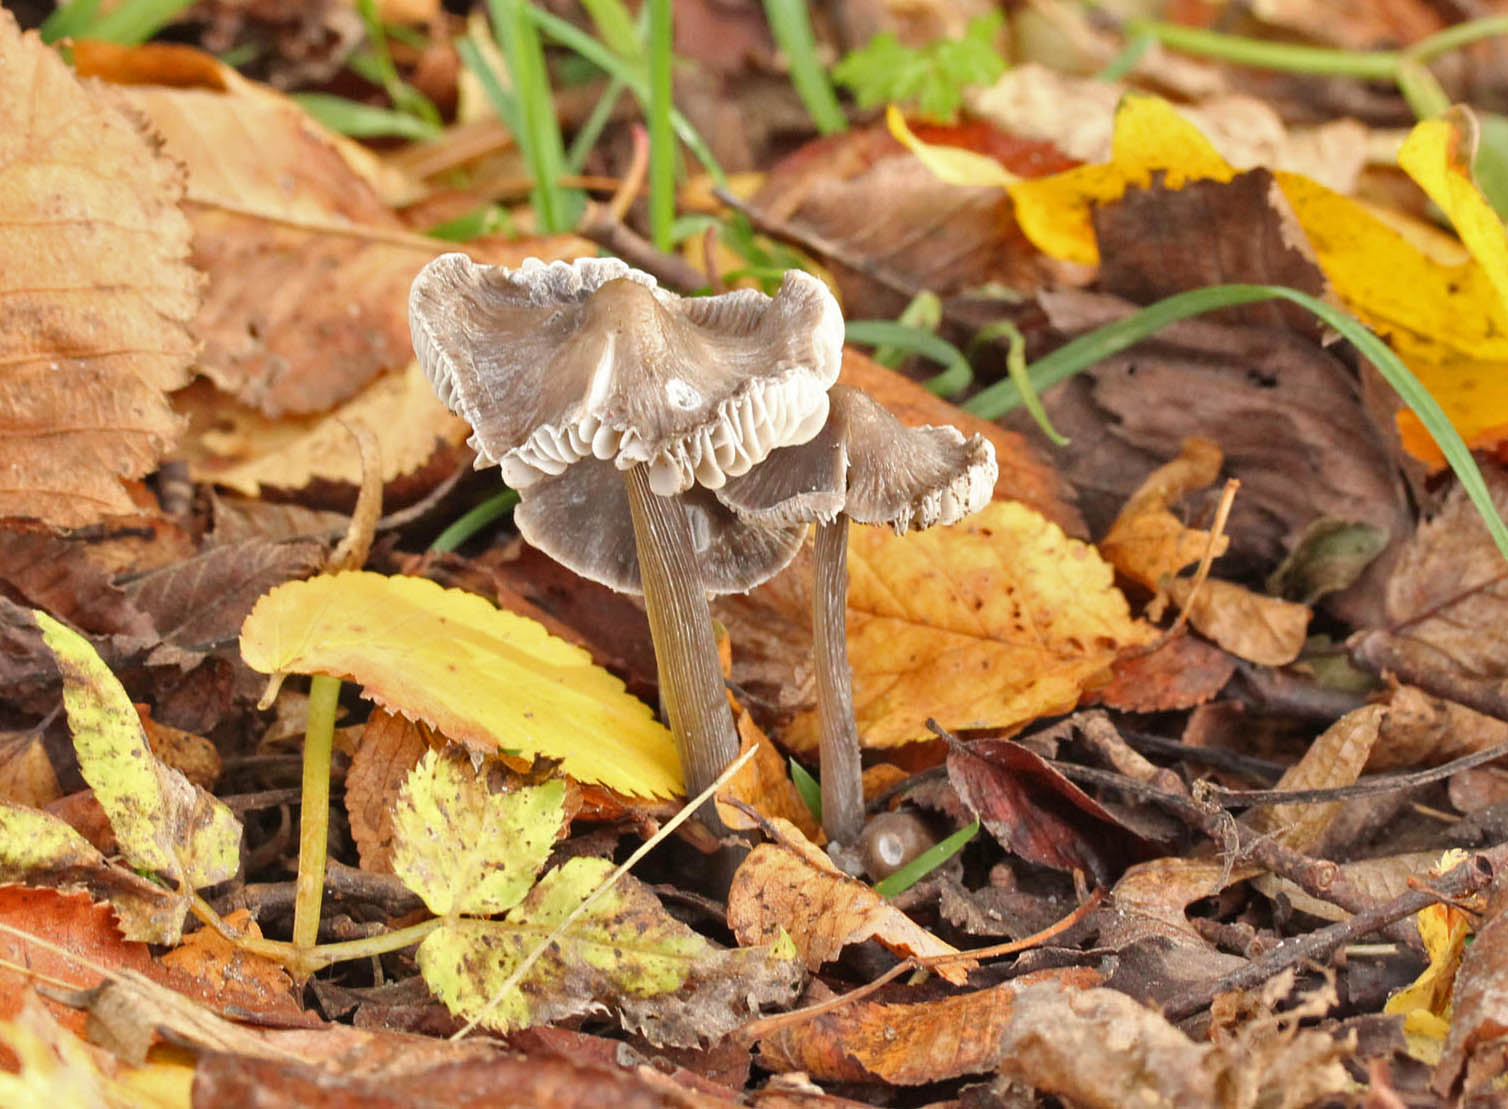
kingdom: Fungi
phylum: Basidiomycota
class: Agaricomycetes
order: Agaricales
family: Mycenaceae
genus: Mycena
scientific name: Mycena polygramma
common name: mangestribet huesvamp
